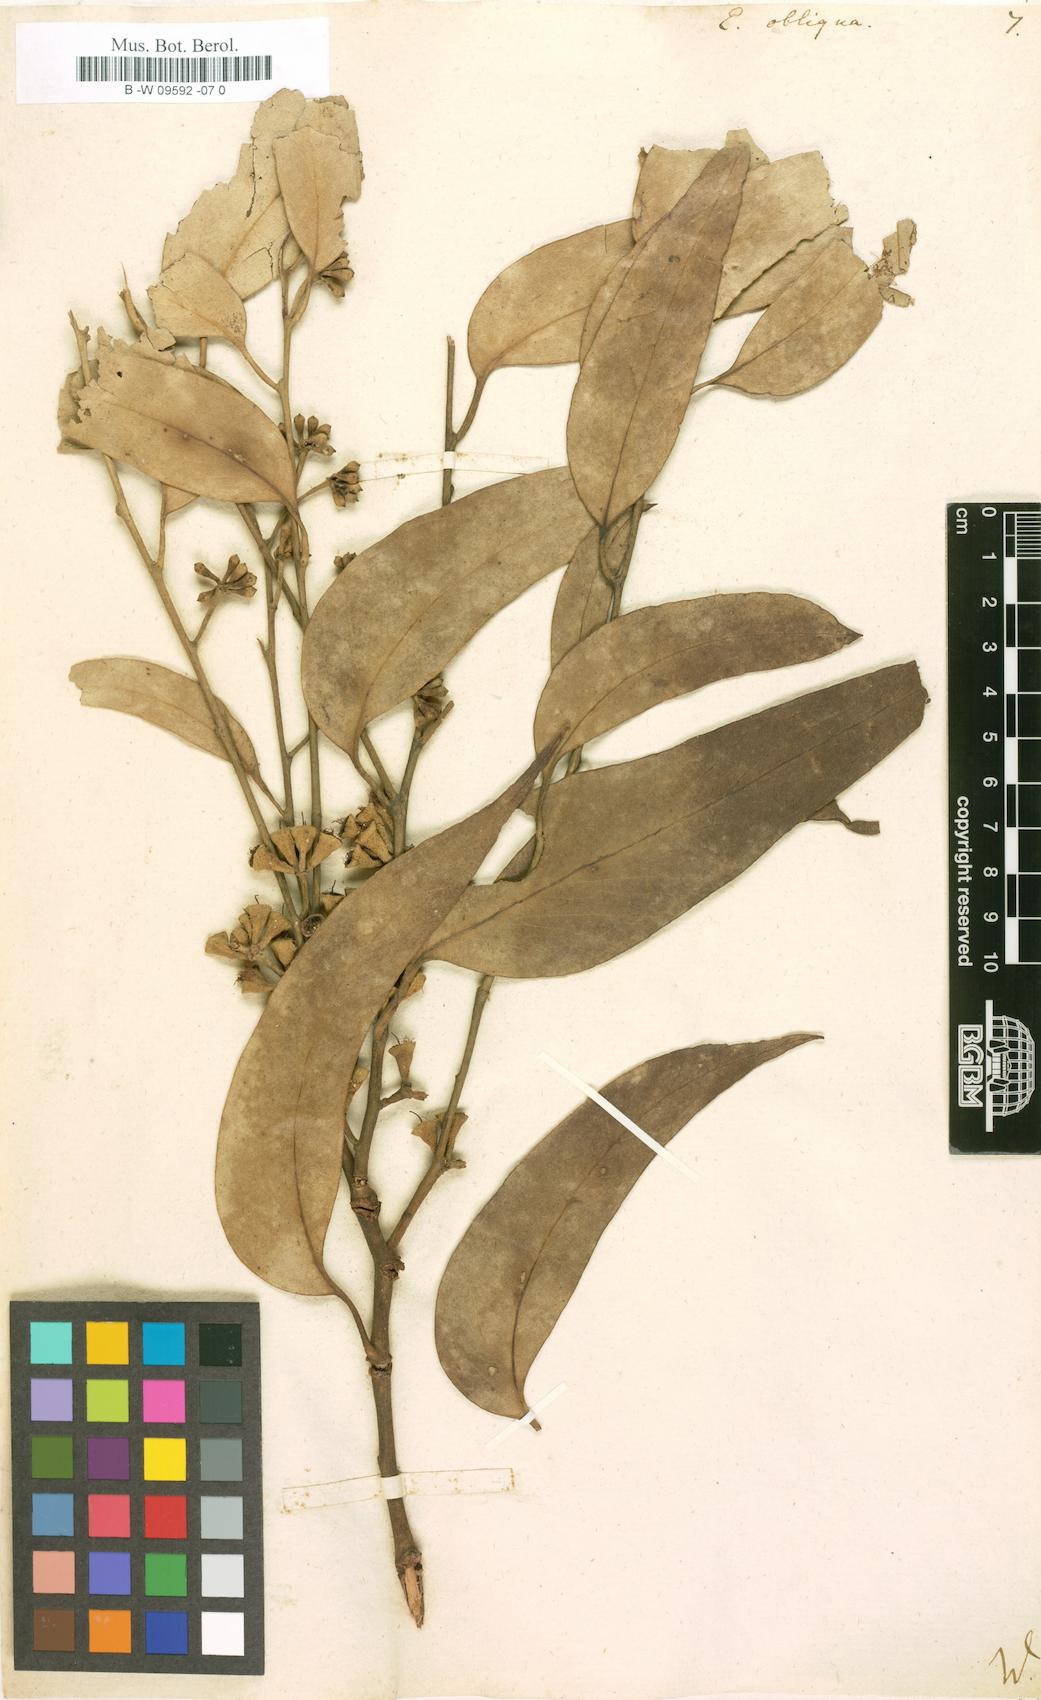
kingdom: Plantae
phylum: Tracheophyta
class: Magnoliopsida
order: Myrtales
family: Myrtaceae
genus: Eucalyptus
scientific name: Eucalyptus obliqua
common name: Messmate stringybark
